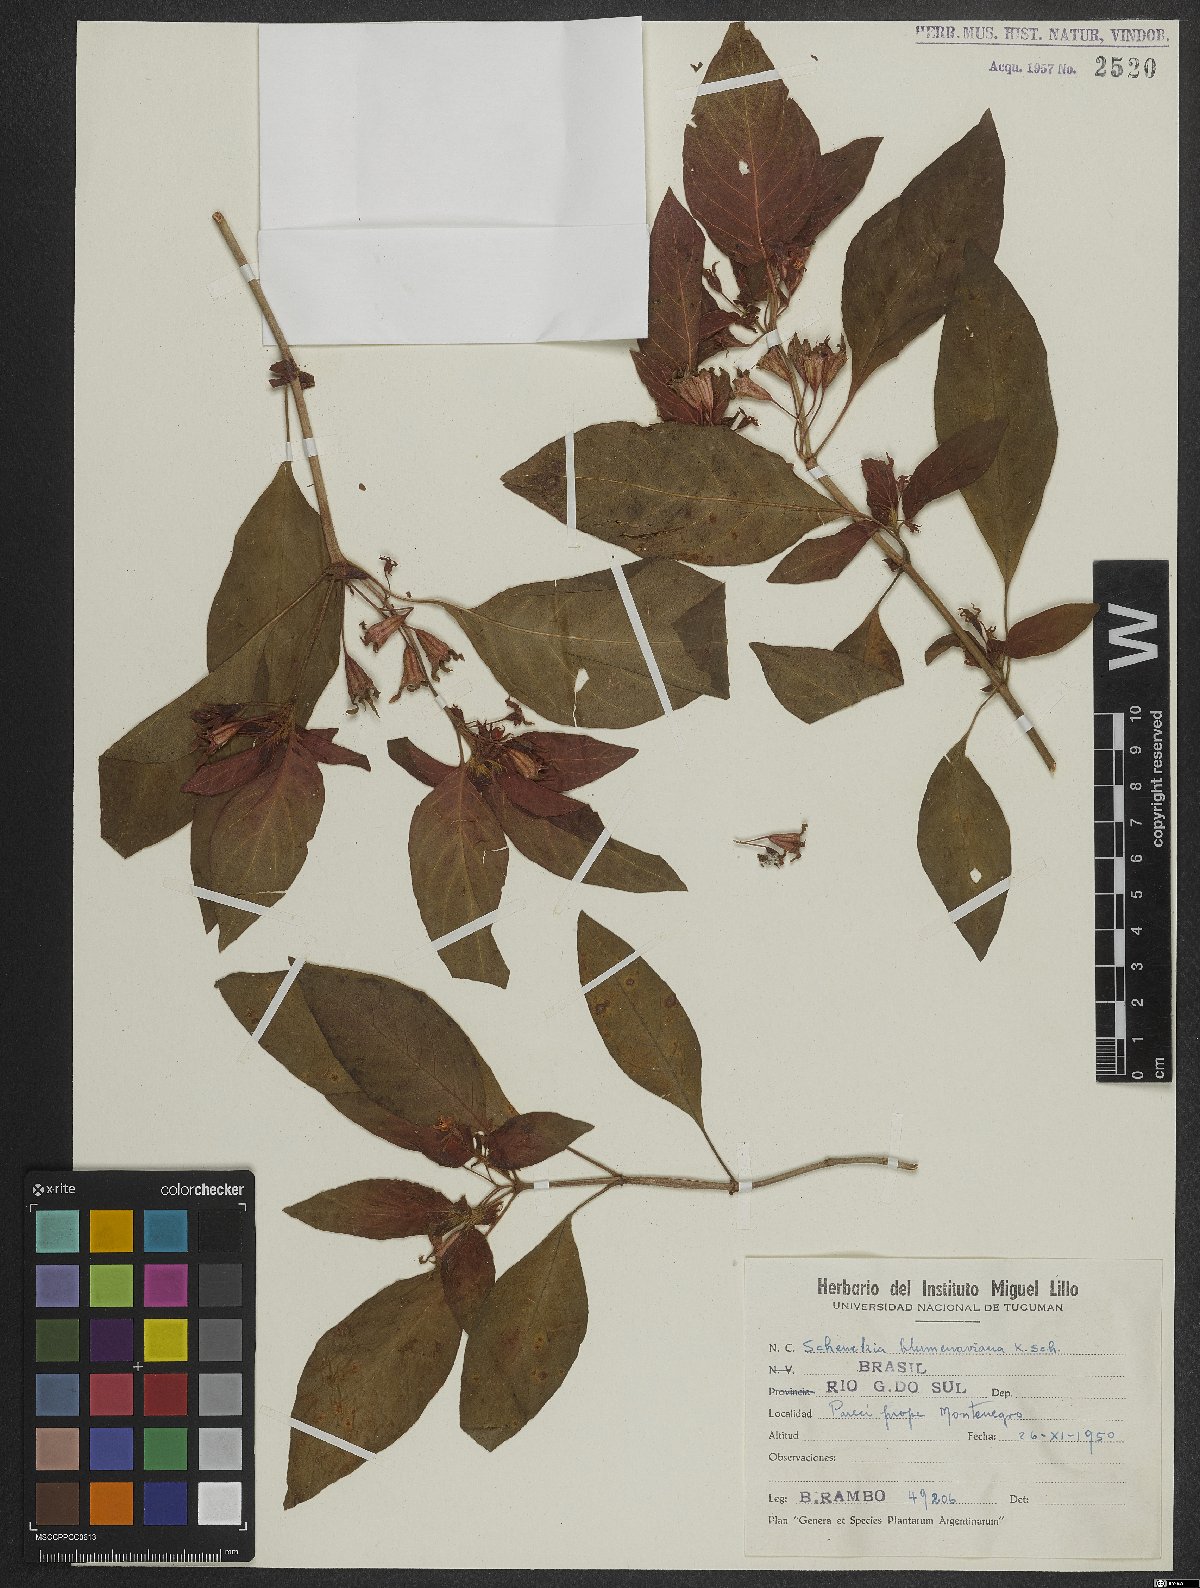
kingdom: Plantae
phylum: Tracheophyta
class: Magnoliopsida
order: Gentianales
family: Rubiaceae
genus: Deppea
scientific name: Deppea blumenaviensis
